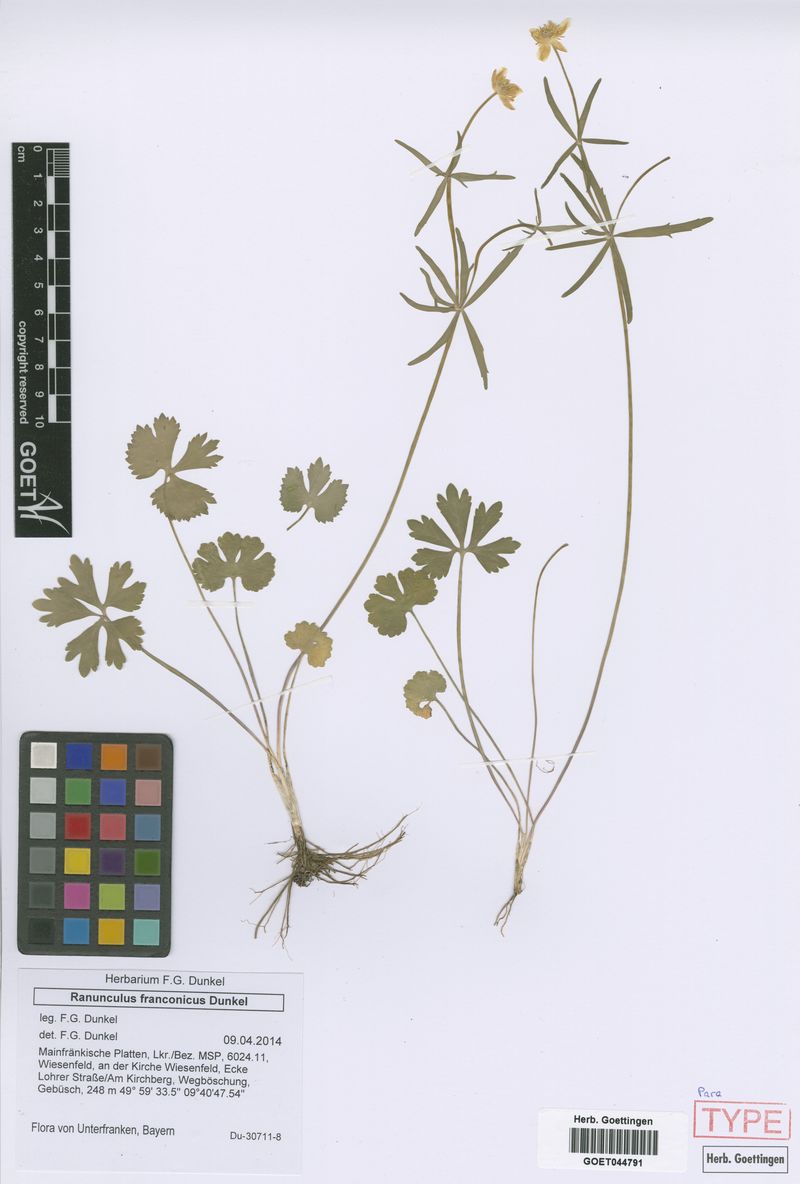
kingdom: Plantae
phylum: Tracheophyta
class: Magnoliopsida
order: Ranunculales
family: Ranunculaceae
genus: Ranunculus
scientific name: Ranunculus franconicus
